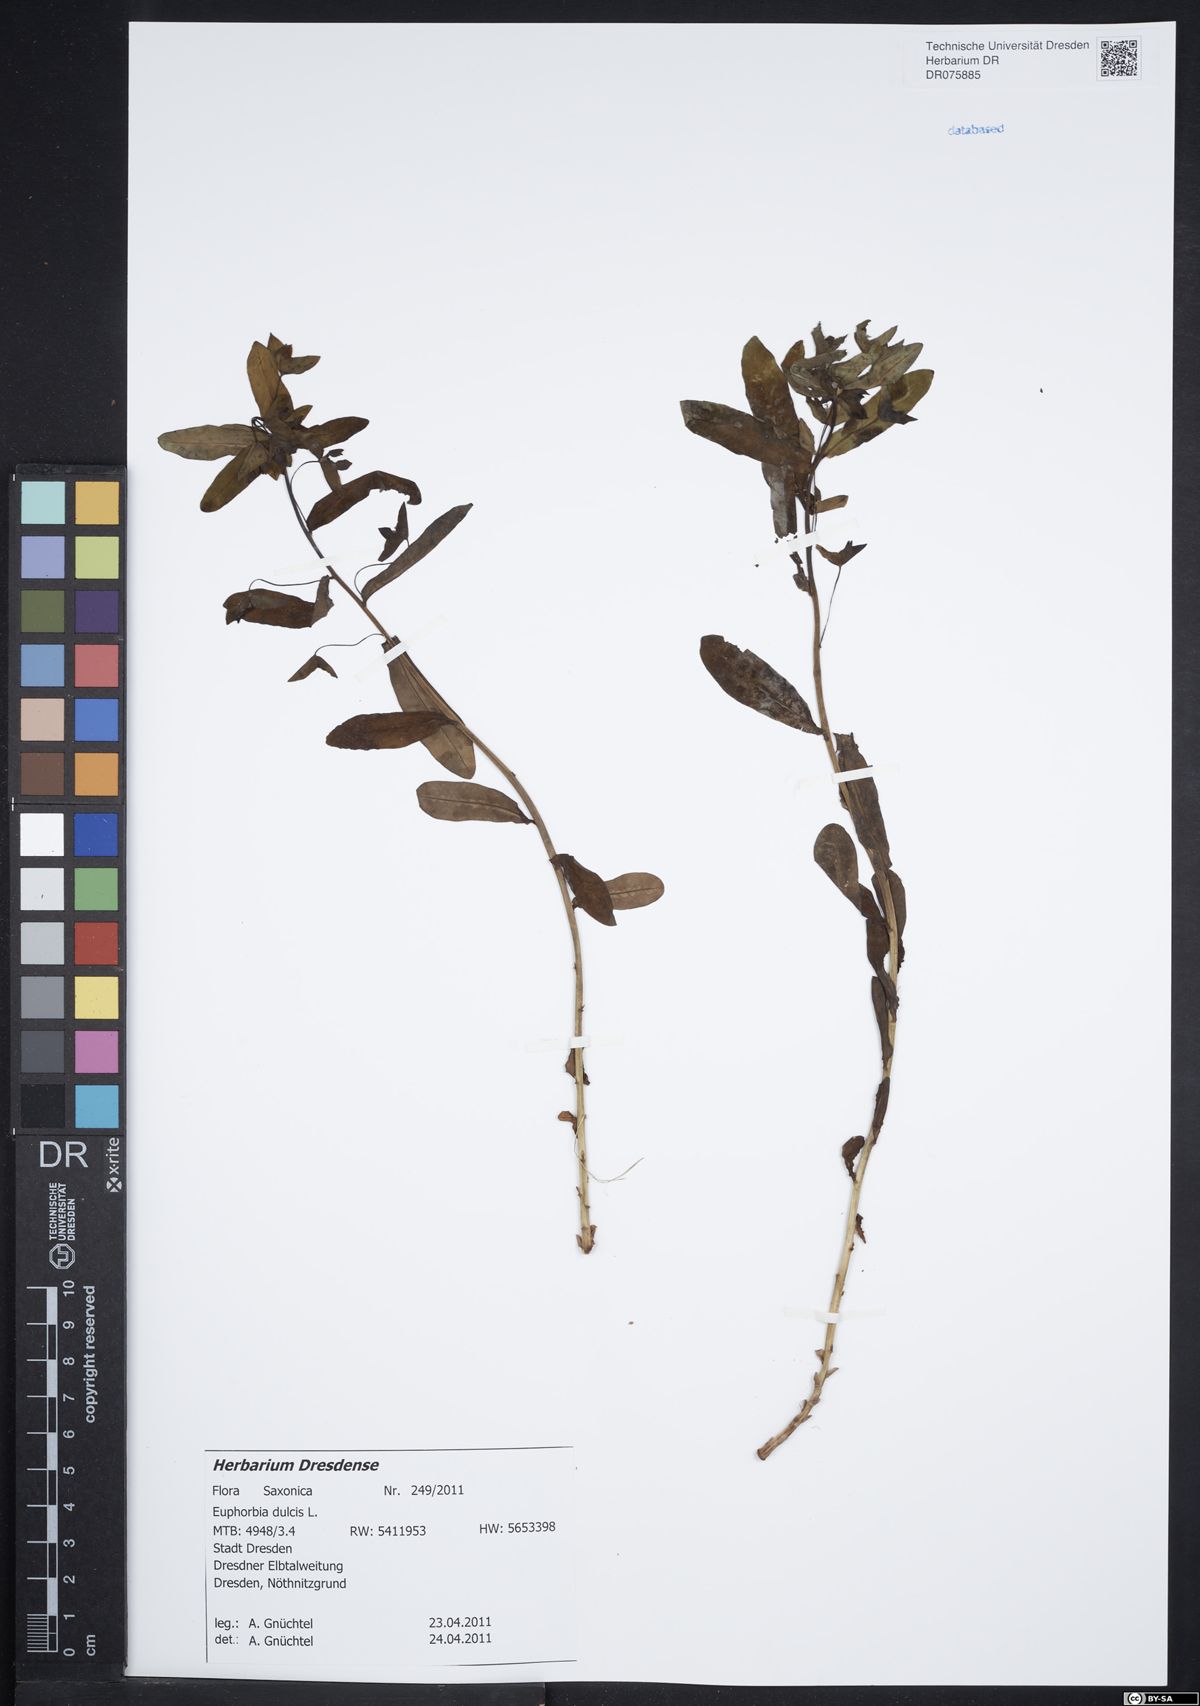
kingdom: Plantae
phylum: Tracheophyta
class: Magnoliopsida
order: Malpighiales
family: Euphorbiaceae
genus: Euphorbia
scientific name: Euphorbia dulcis
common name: Sweet spurge
